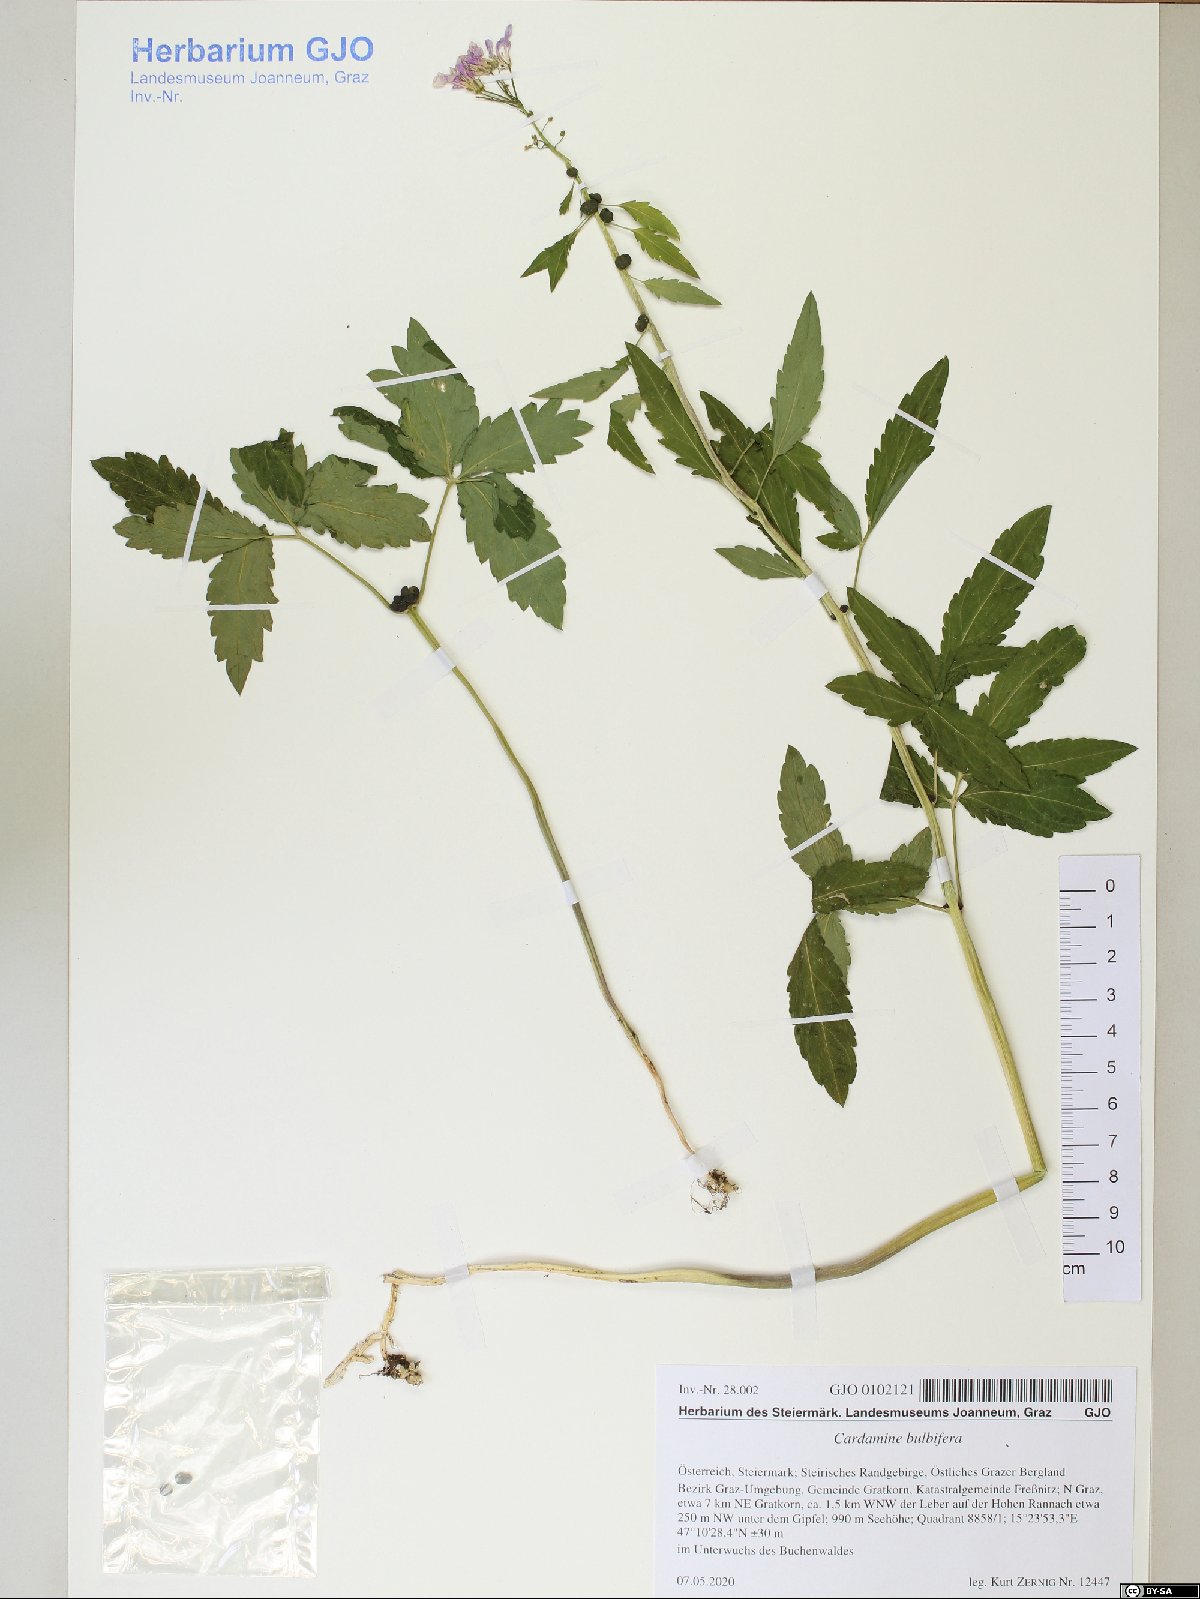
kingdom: Plantae
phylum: Tracheophyta
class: Magnoliopsida
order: Brassicales
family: Brassicaceae
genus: Cardamine
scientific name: Cardamine bulbifera
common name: Coralroot bittercress
